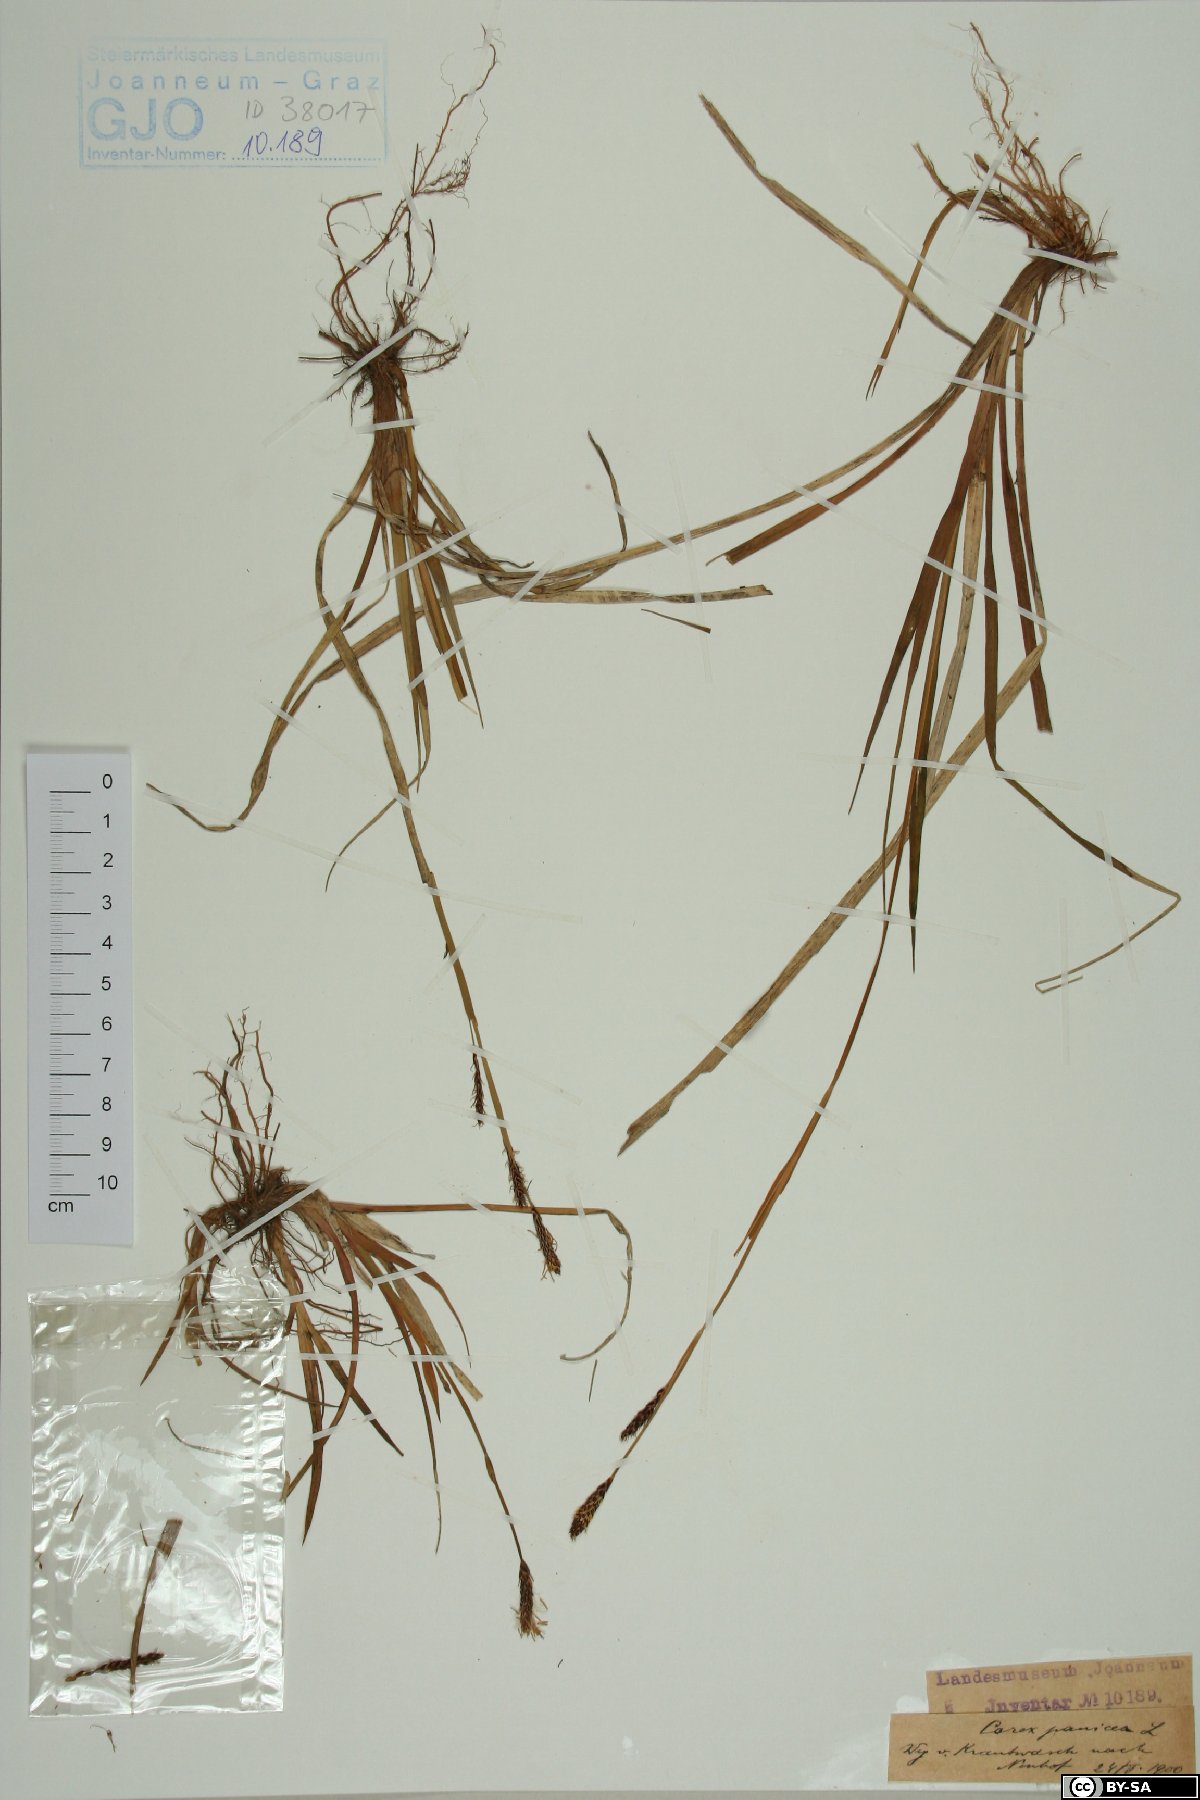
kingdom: Plantae
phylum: Tracheophyta
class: Liliopsida
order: Poales
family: Cyperaceae
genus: Carex
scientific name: Carex panicea
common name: Carnation sedge
